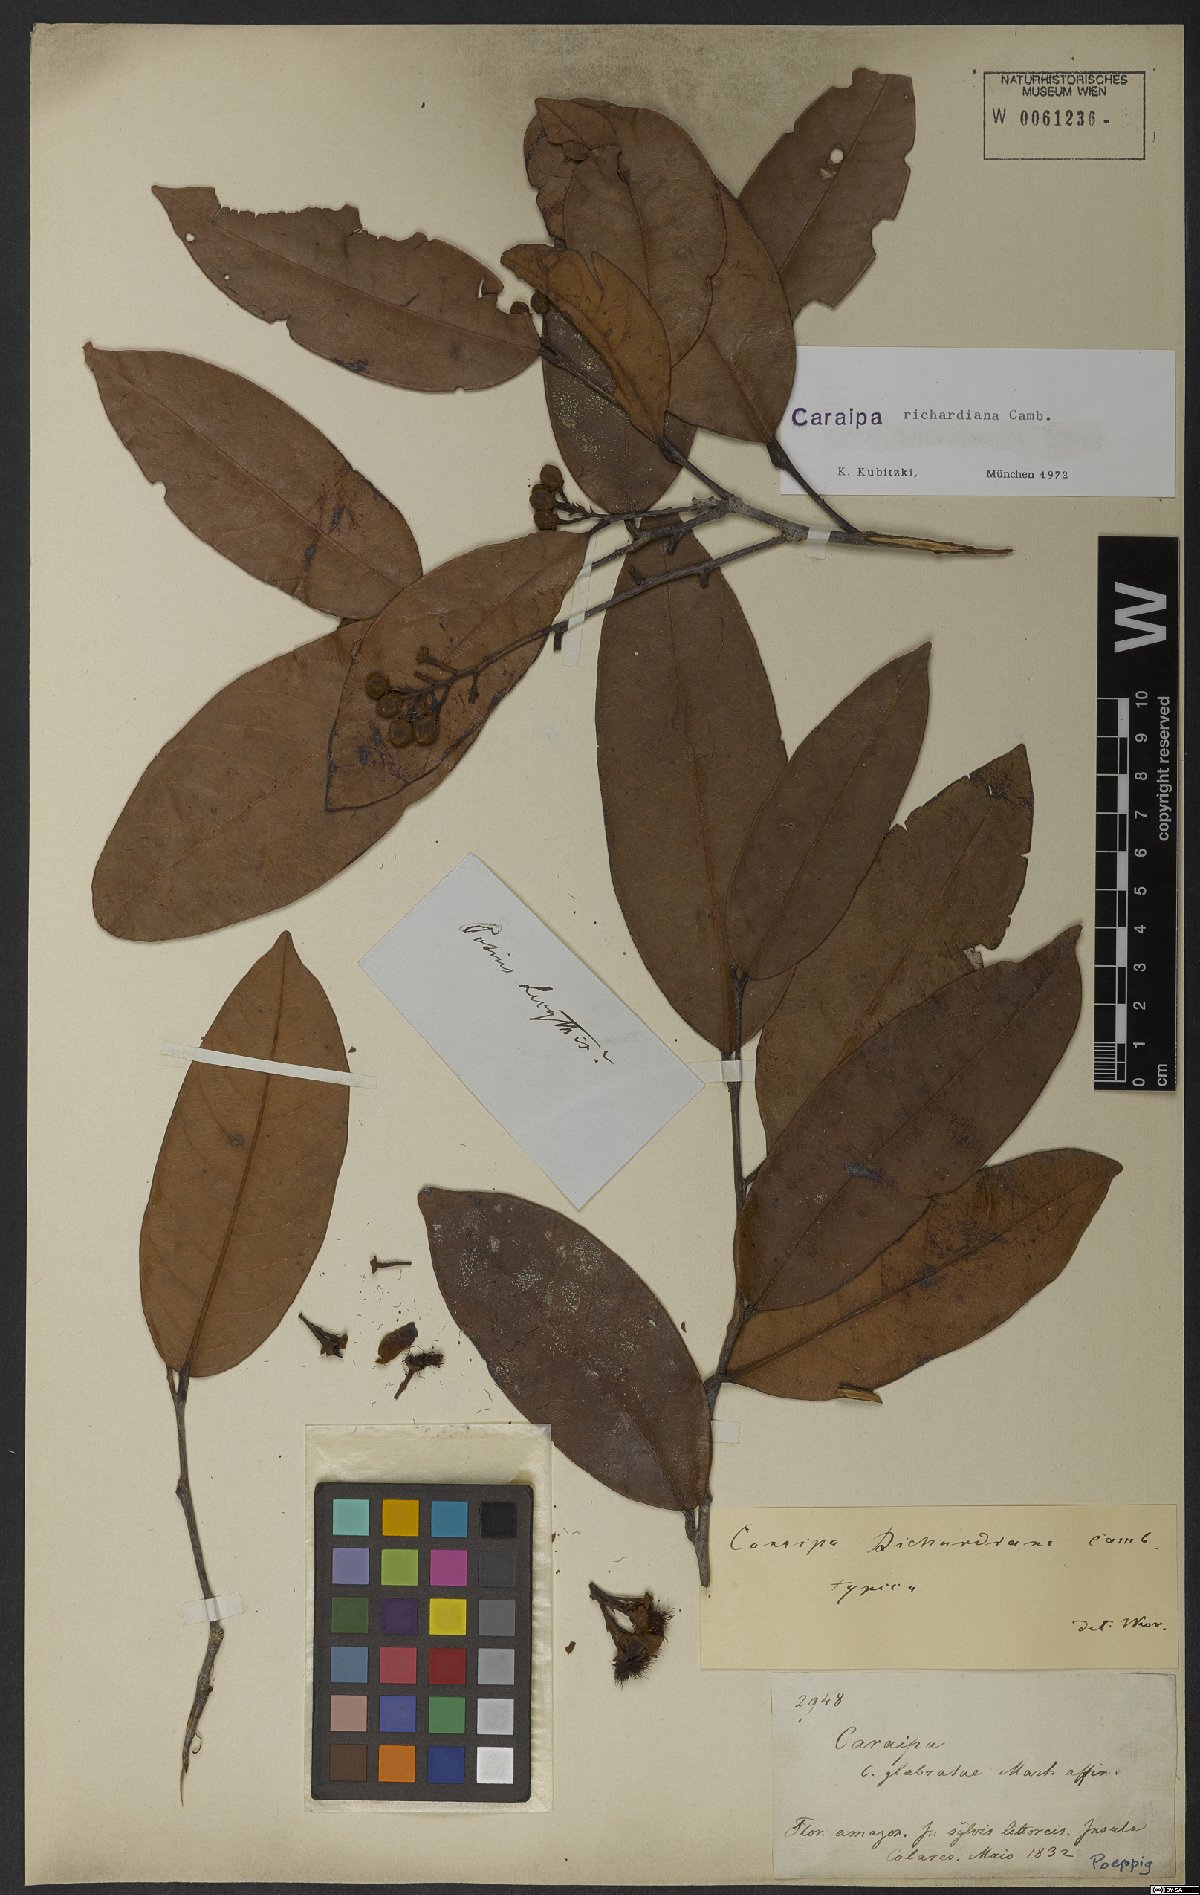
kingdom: Plantae
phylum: Tracheophyta
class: Magnoliopsida
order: Malpighiales
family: Calophyllaceae
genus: Caraipa
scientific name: Caraipa richardiana
